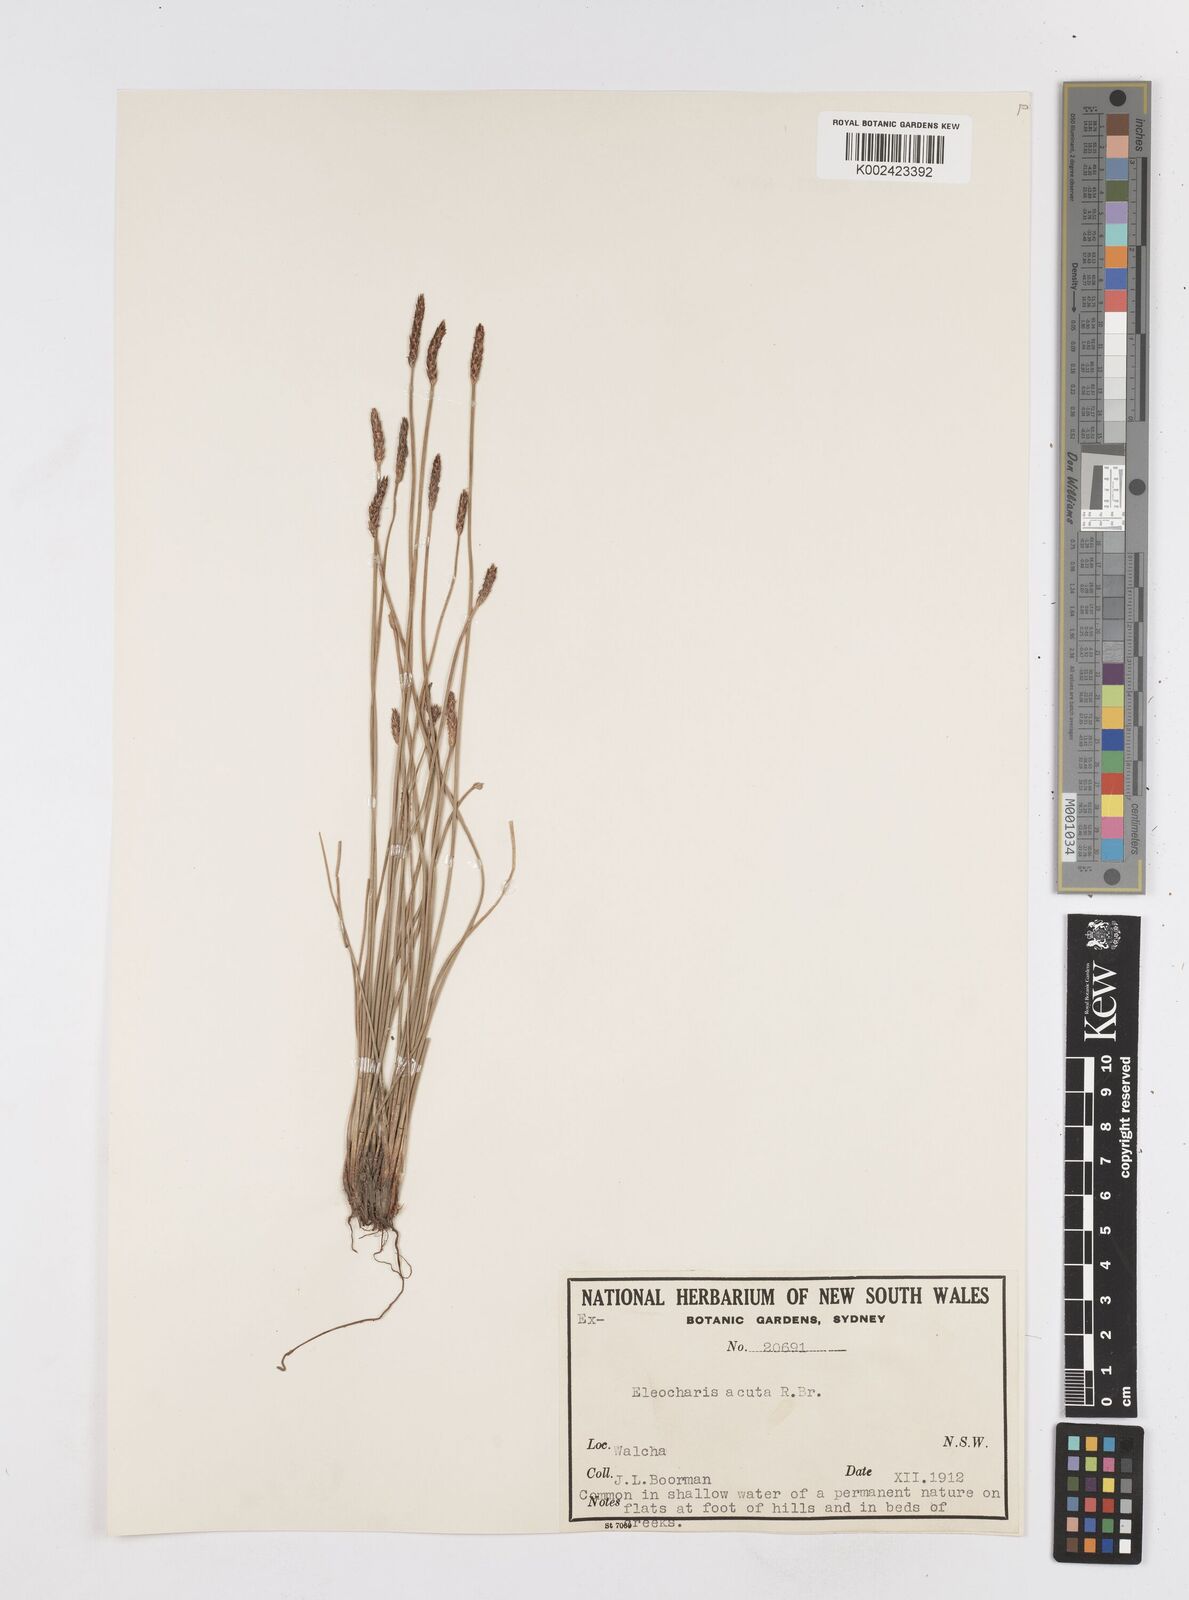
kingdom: Plantae
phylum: Tracheophyta
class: Liliopsida
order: Poales
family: Cyperaceae
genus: Eleocharis
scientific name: Eleocharis acuta
